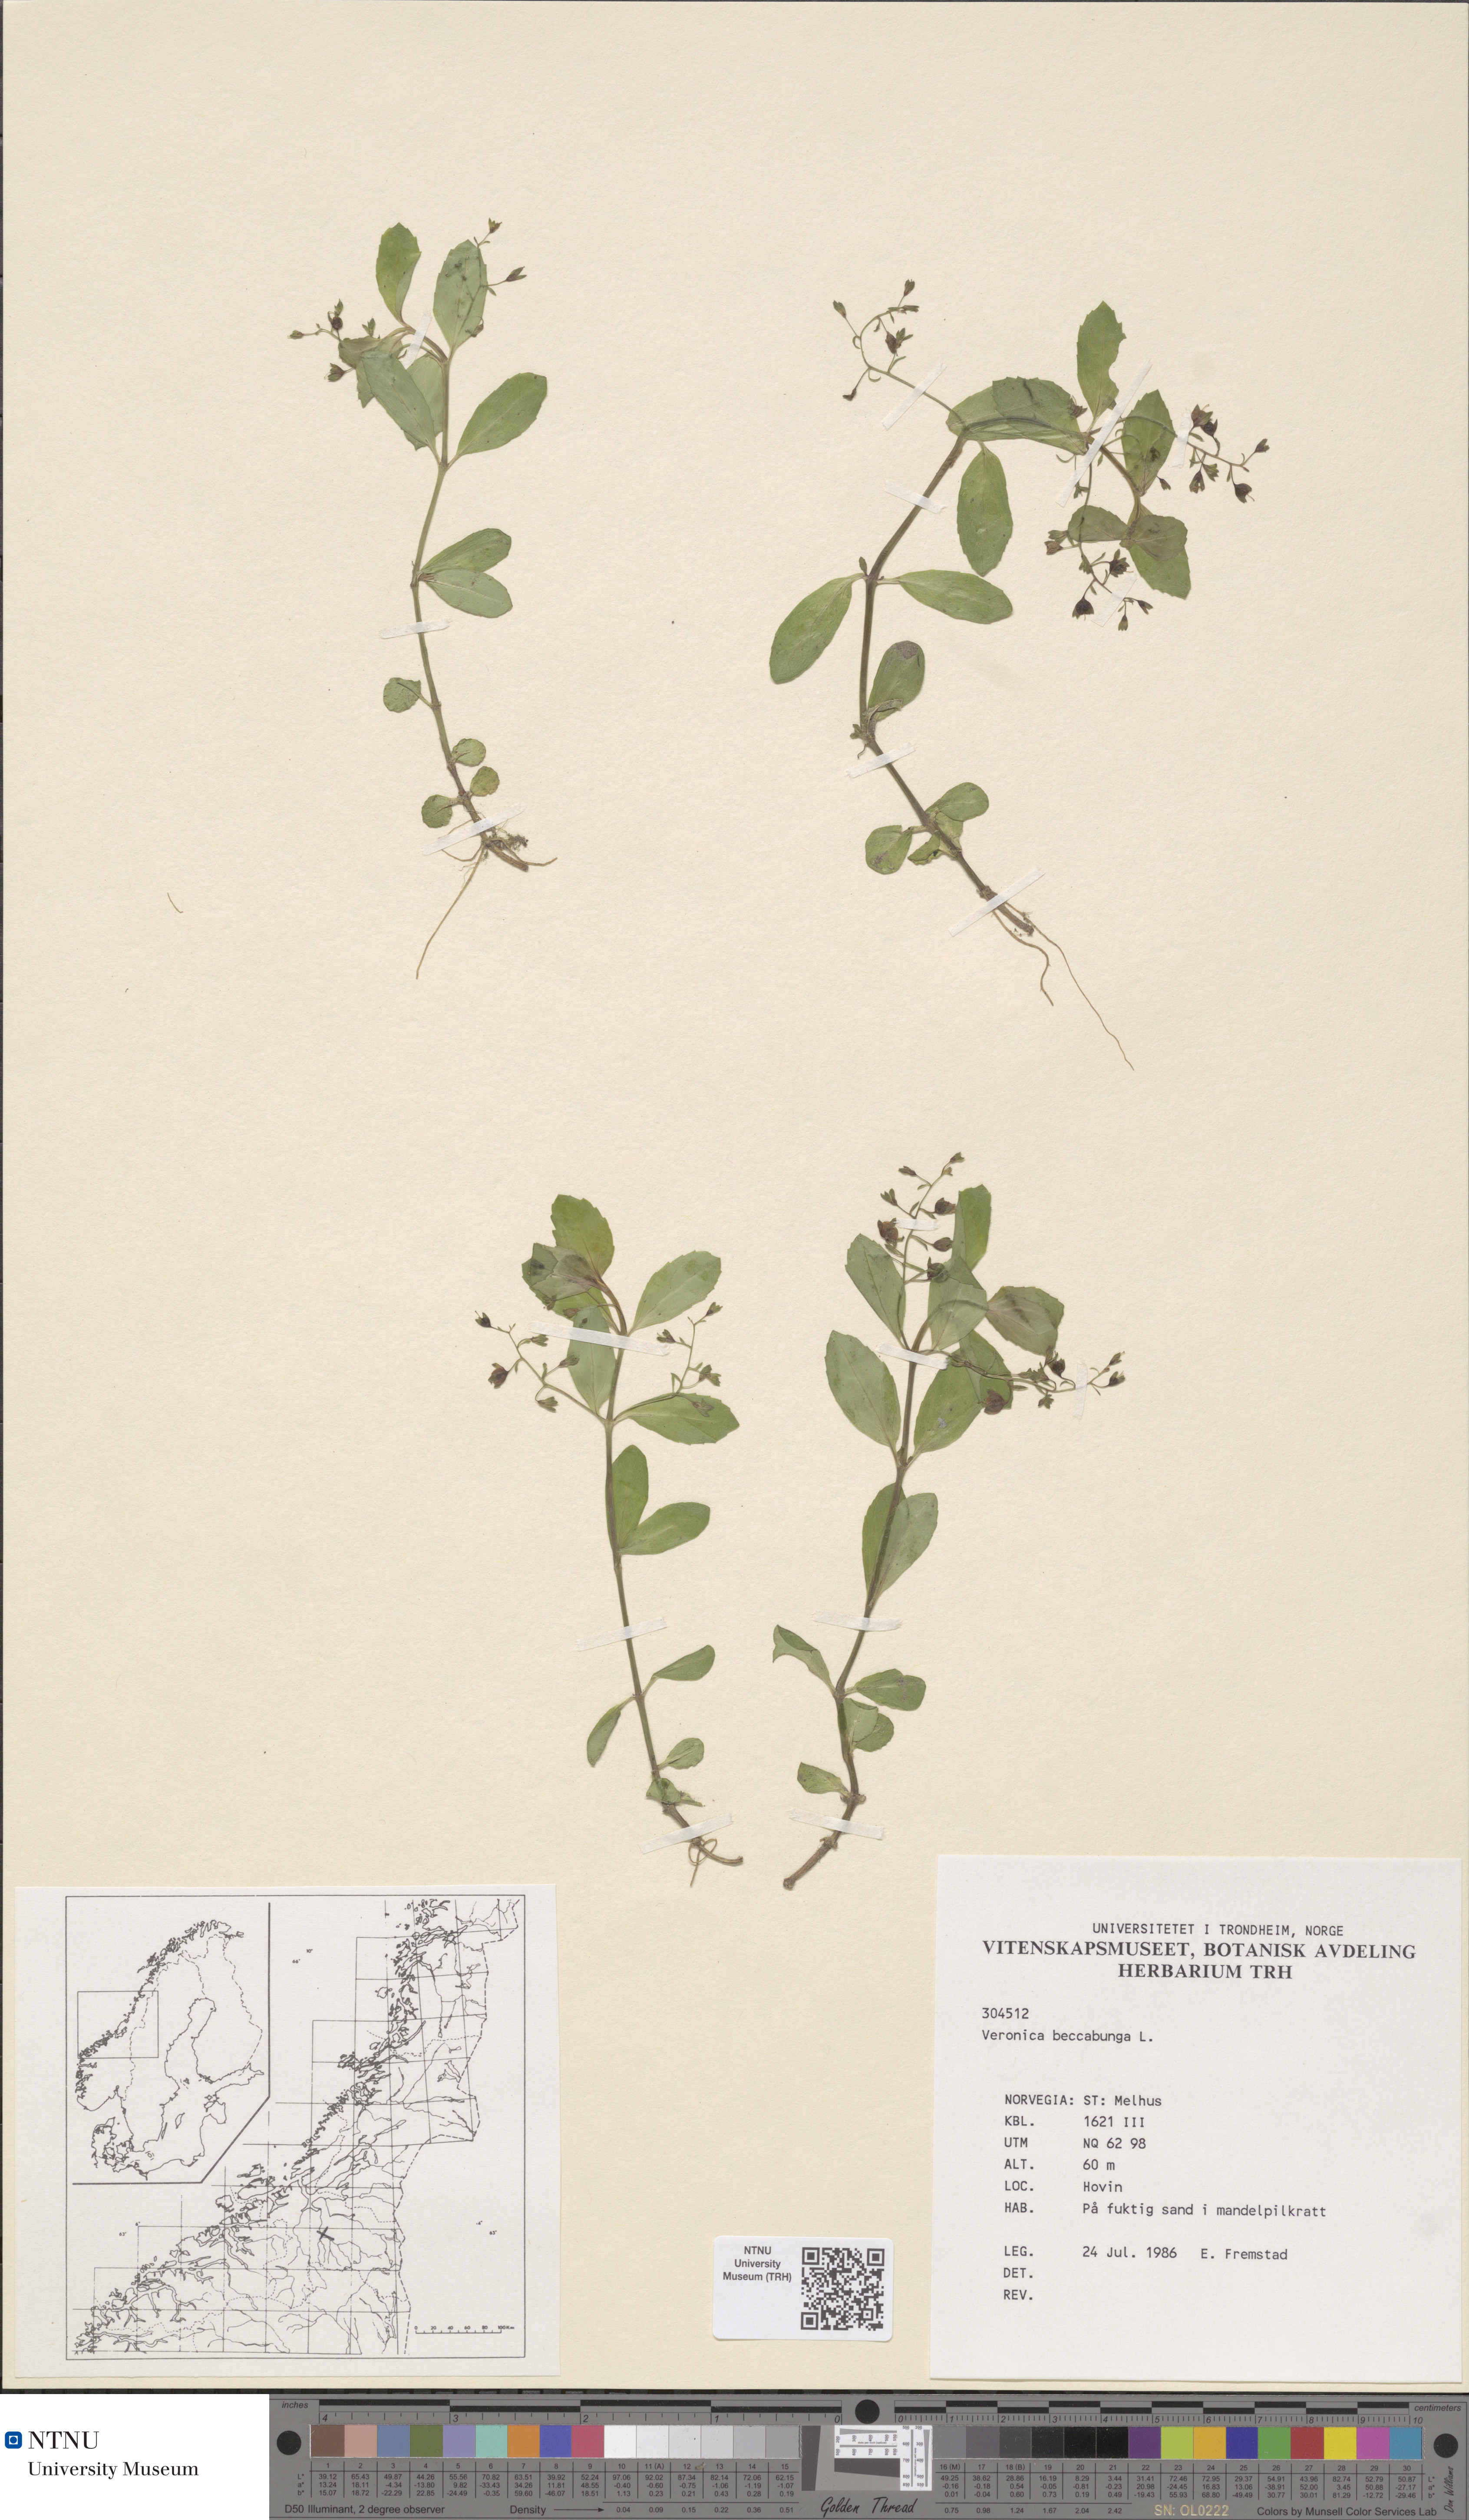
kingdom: Plantae
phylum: Tracheophyta
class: Magnoliopsida
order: Lamiales
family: Plantaginaceae
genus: Veronica
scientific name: Veronica beccabunga
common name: Brooklime
